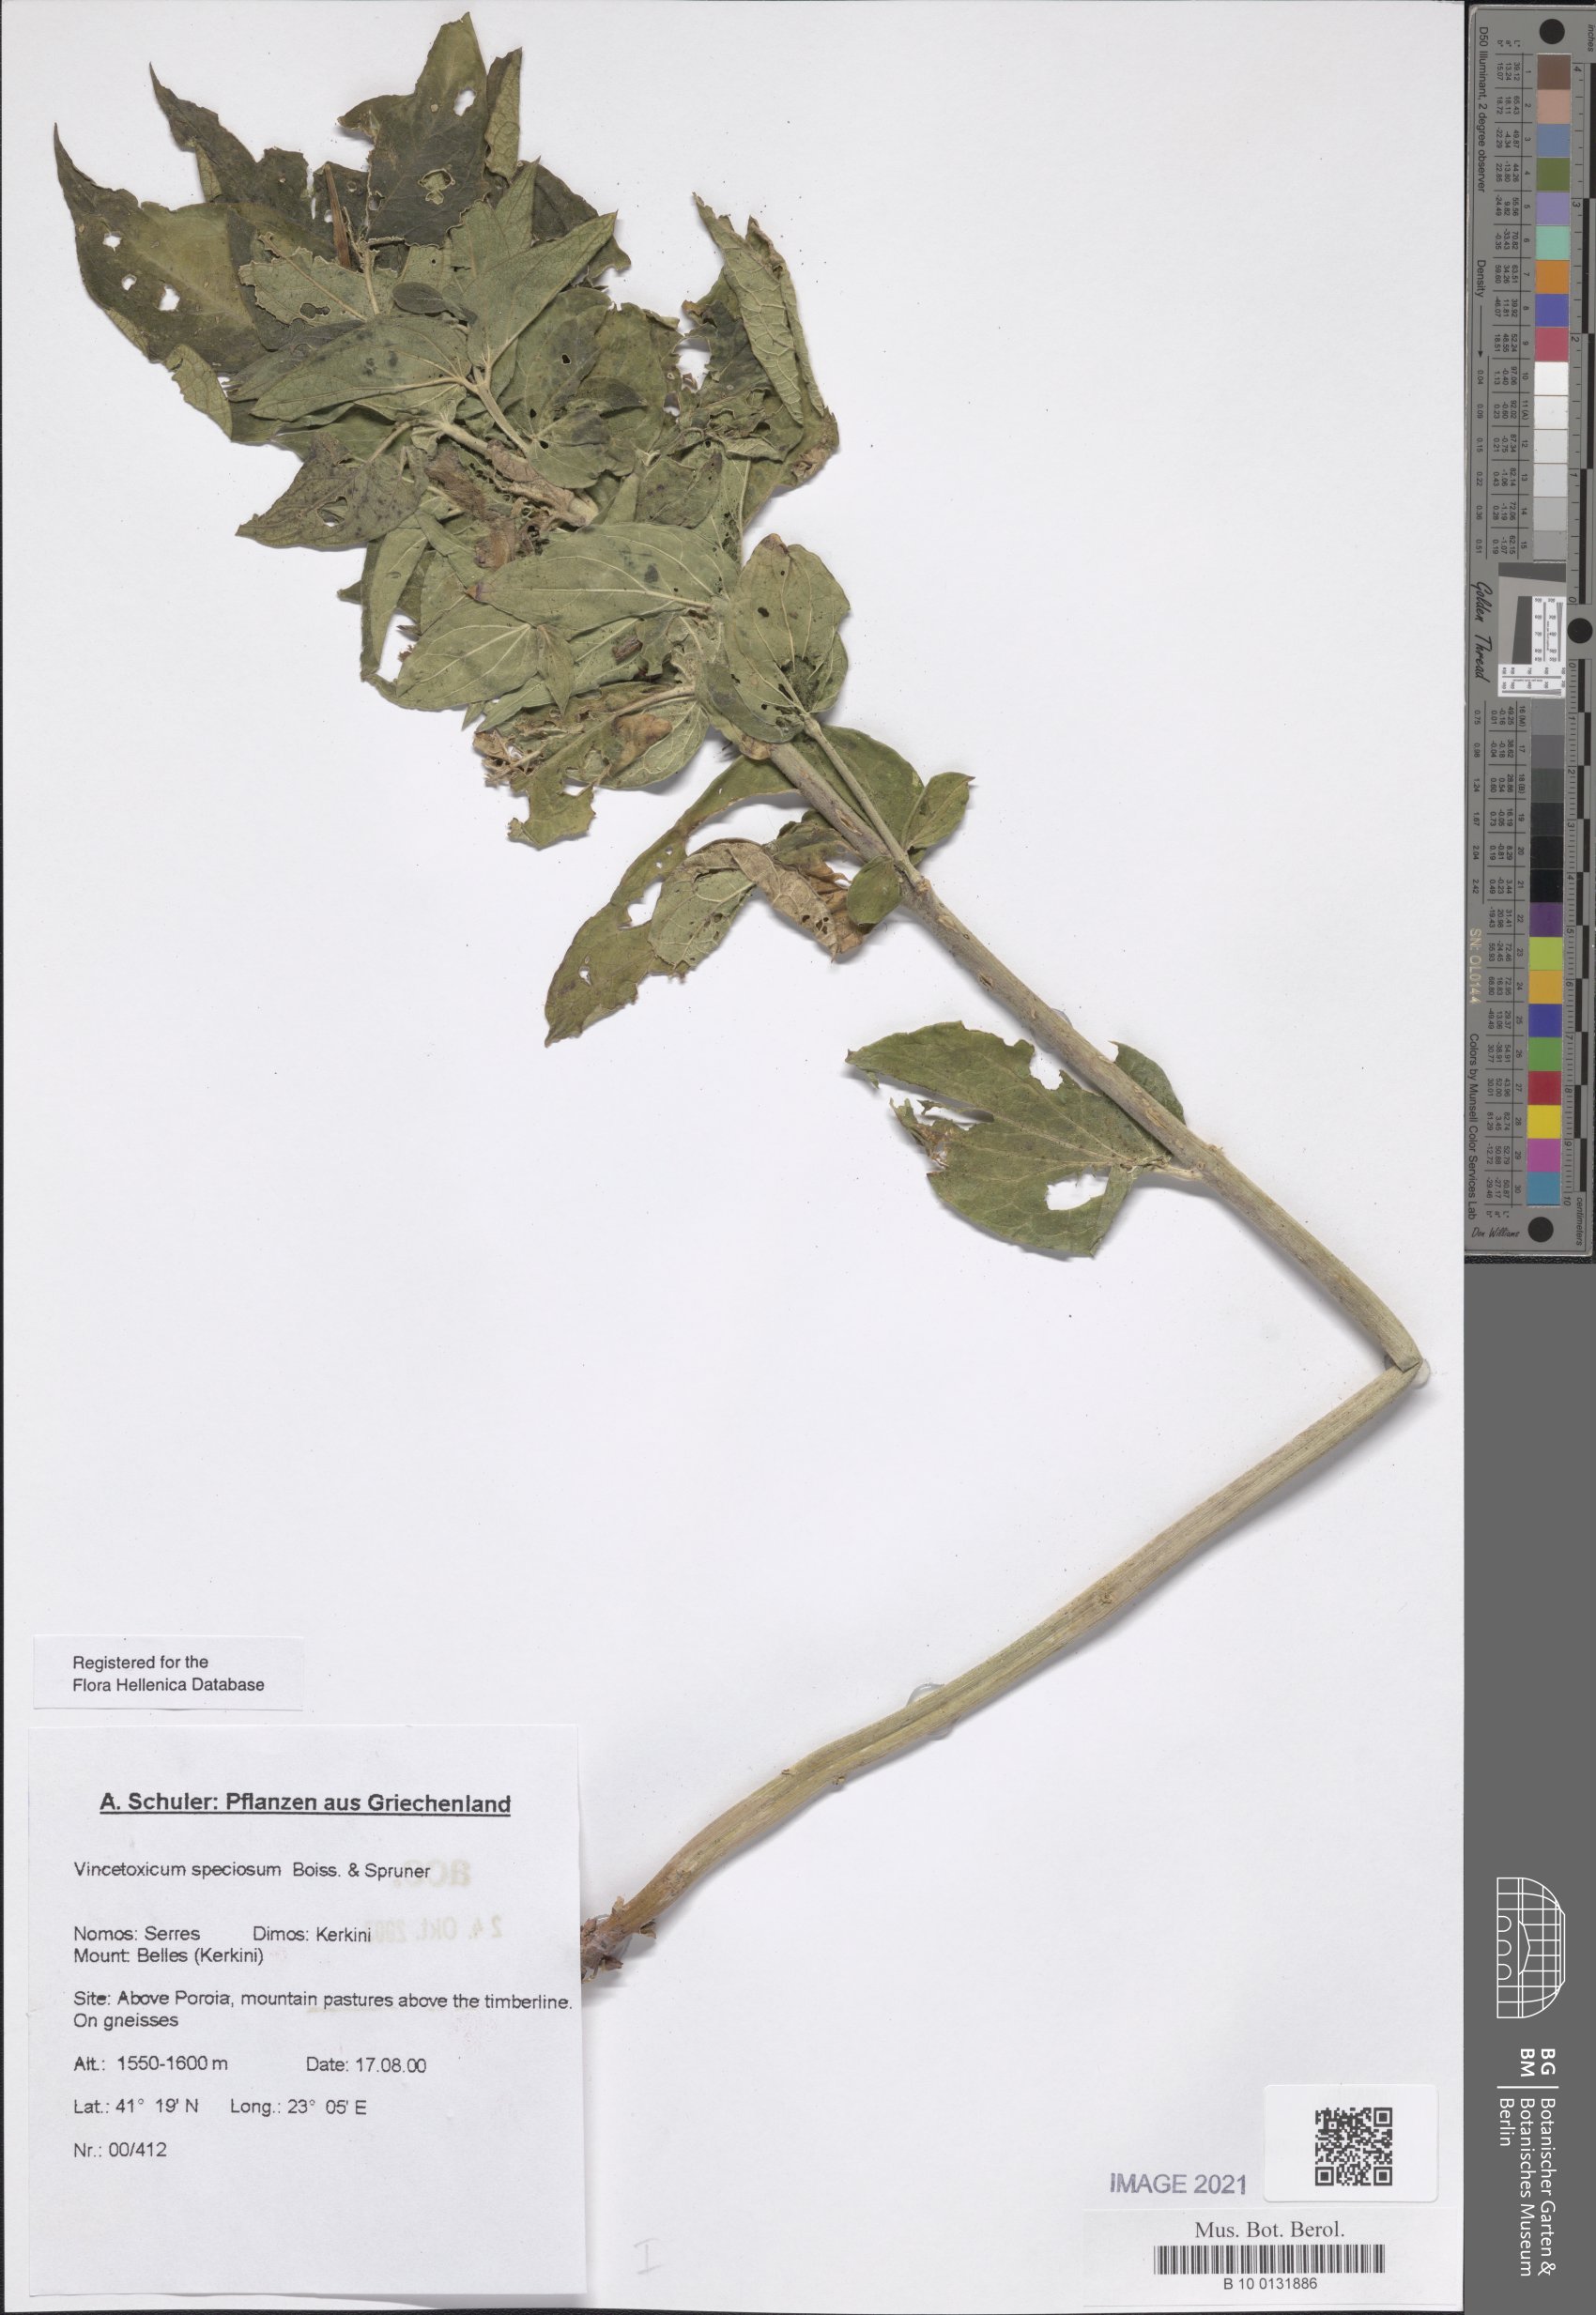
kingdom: Plantae
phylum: Tracheophyta
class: Magnoliopsida
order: Gentianales
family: Apocynaceae
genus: Vincetoxicum
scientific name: Vincetoxicum speciosum
